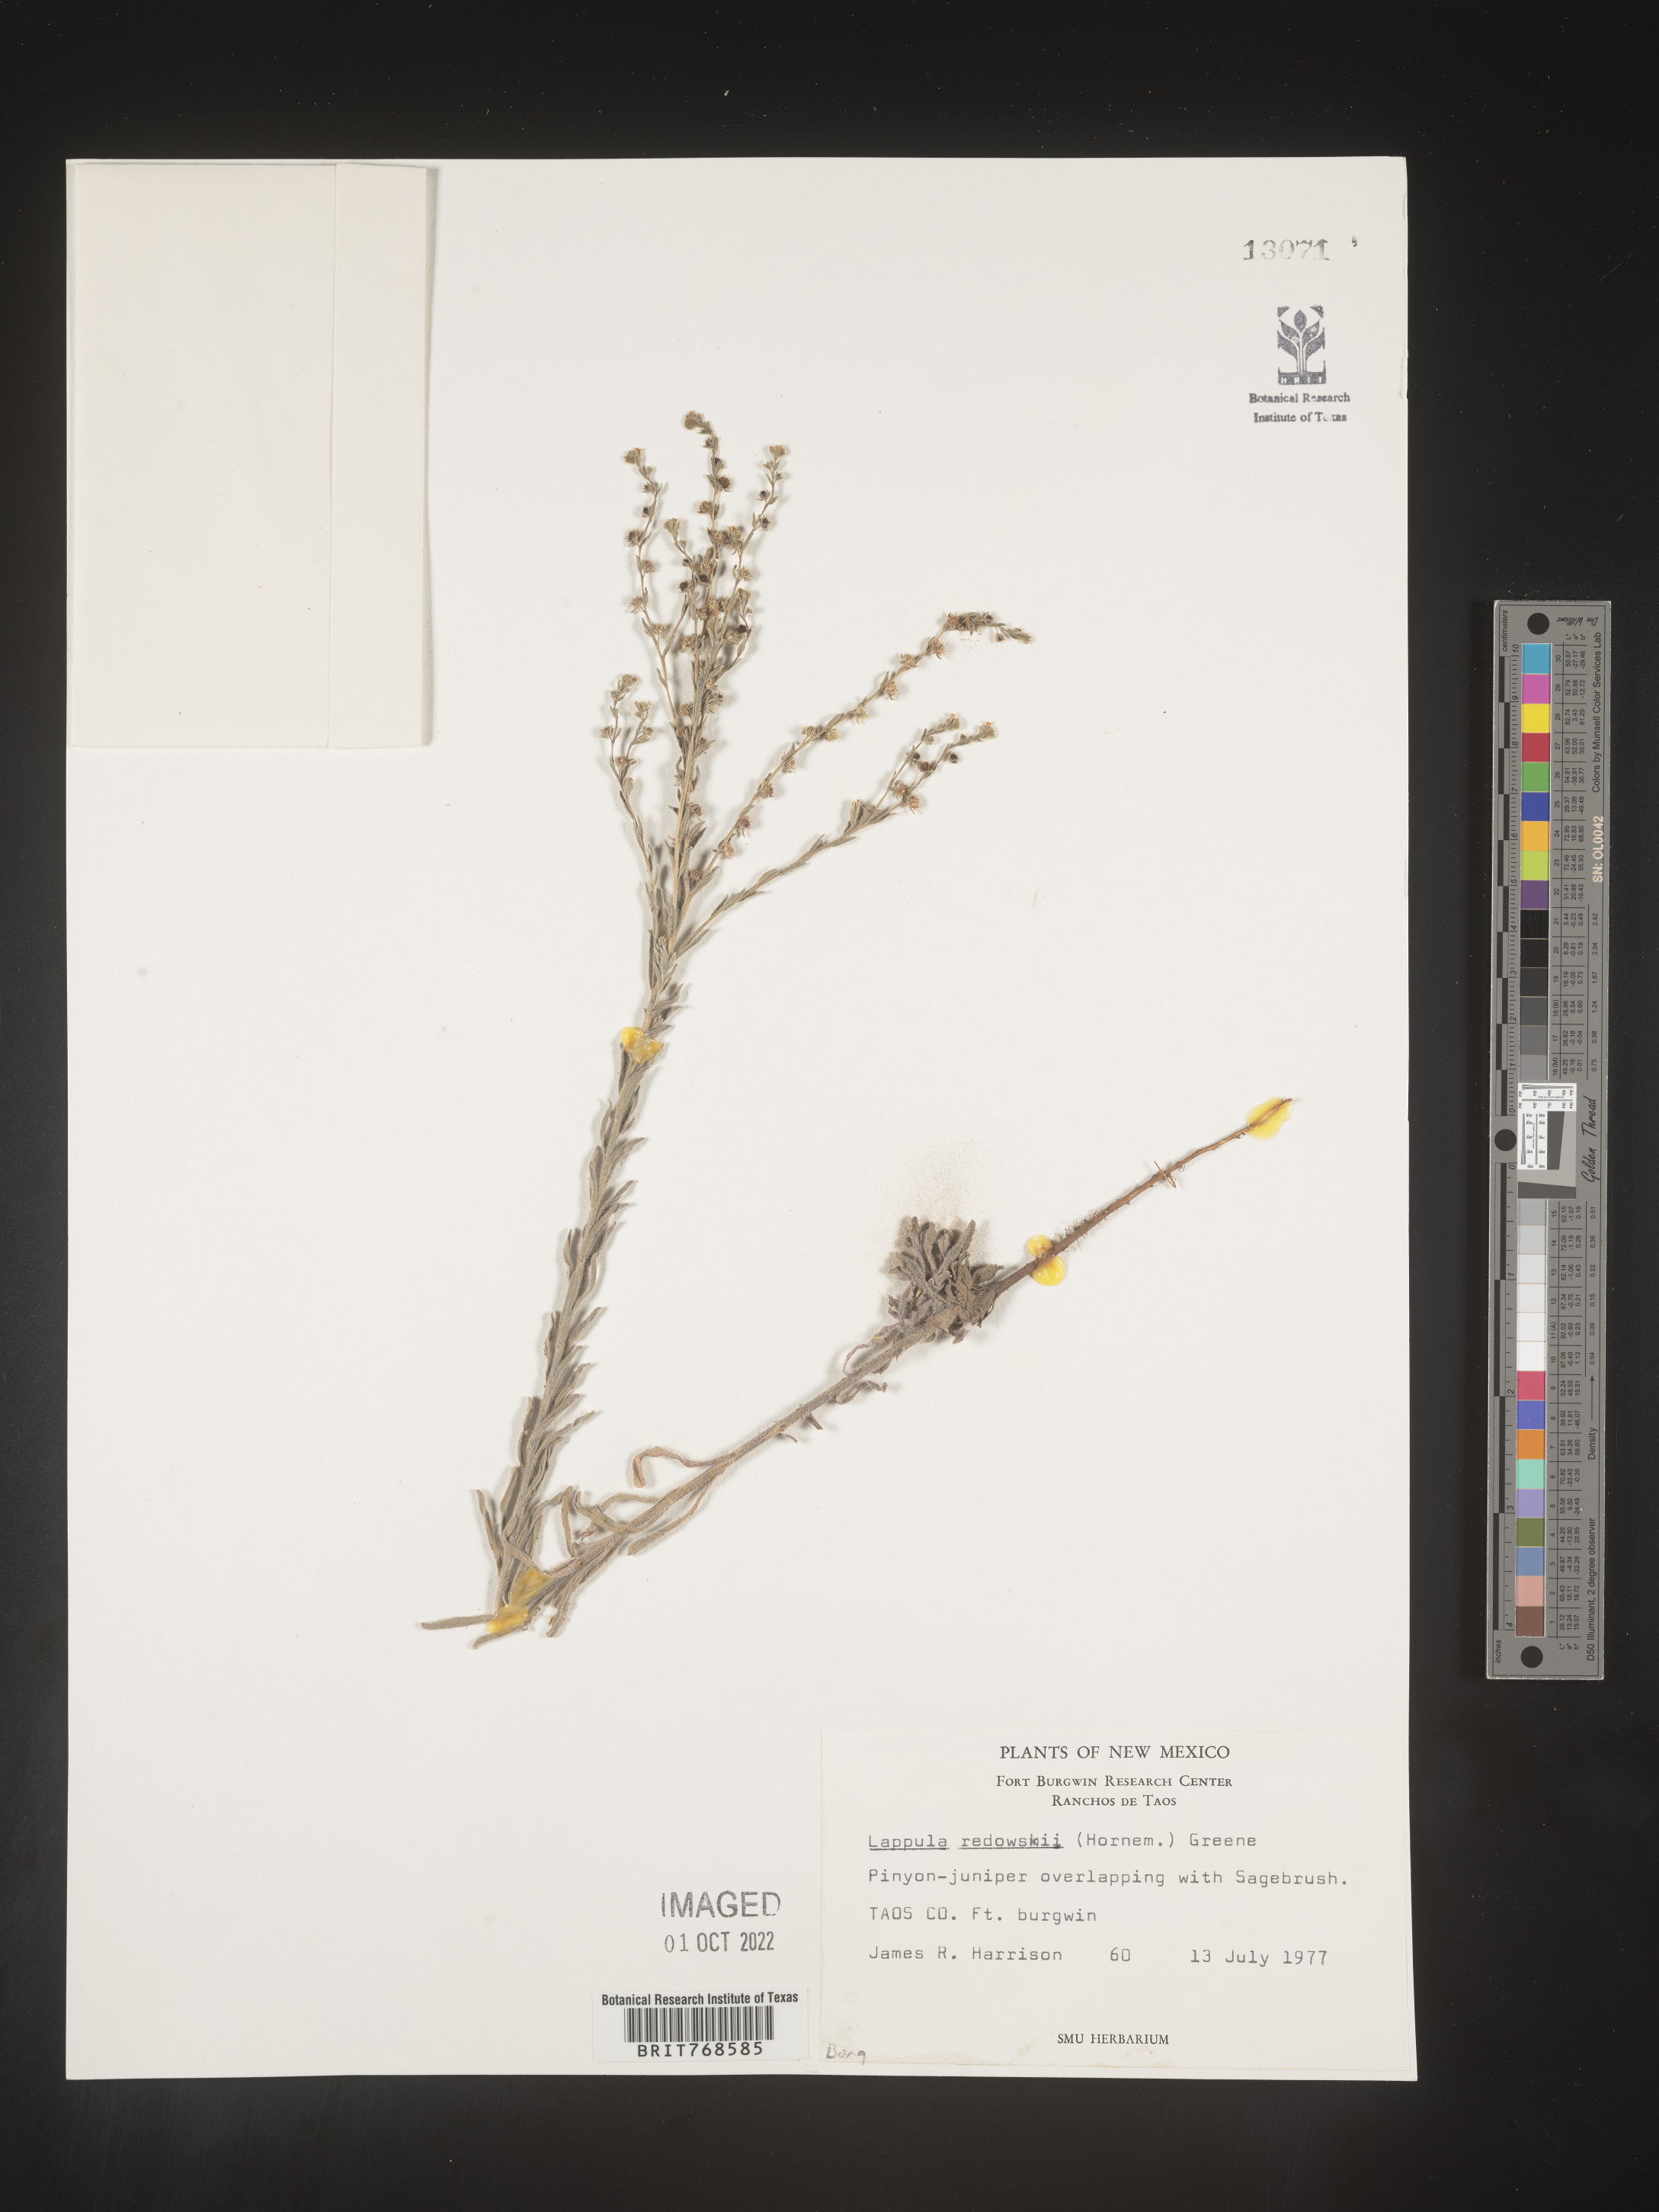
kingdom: Plantae
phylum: Tracheophyta
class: Magnoliopsida
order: Boraginales
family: Boraginaceae
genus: Lappula
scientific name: Lappula redowskii
